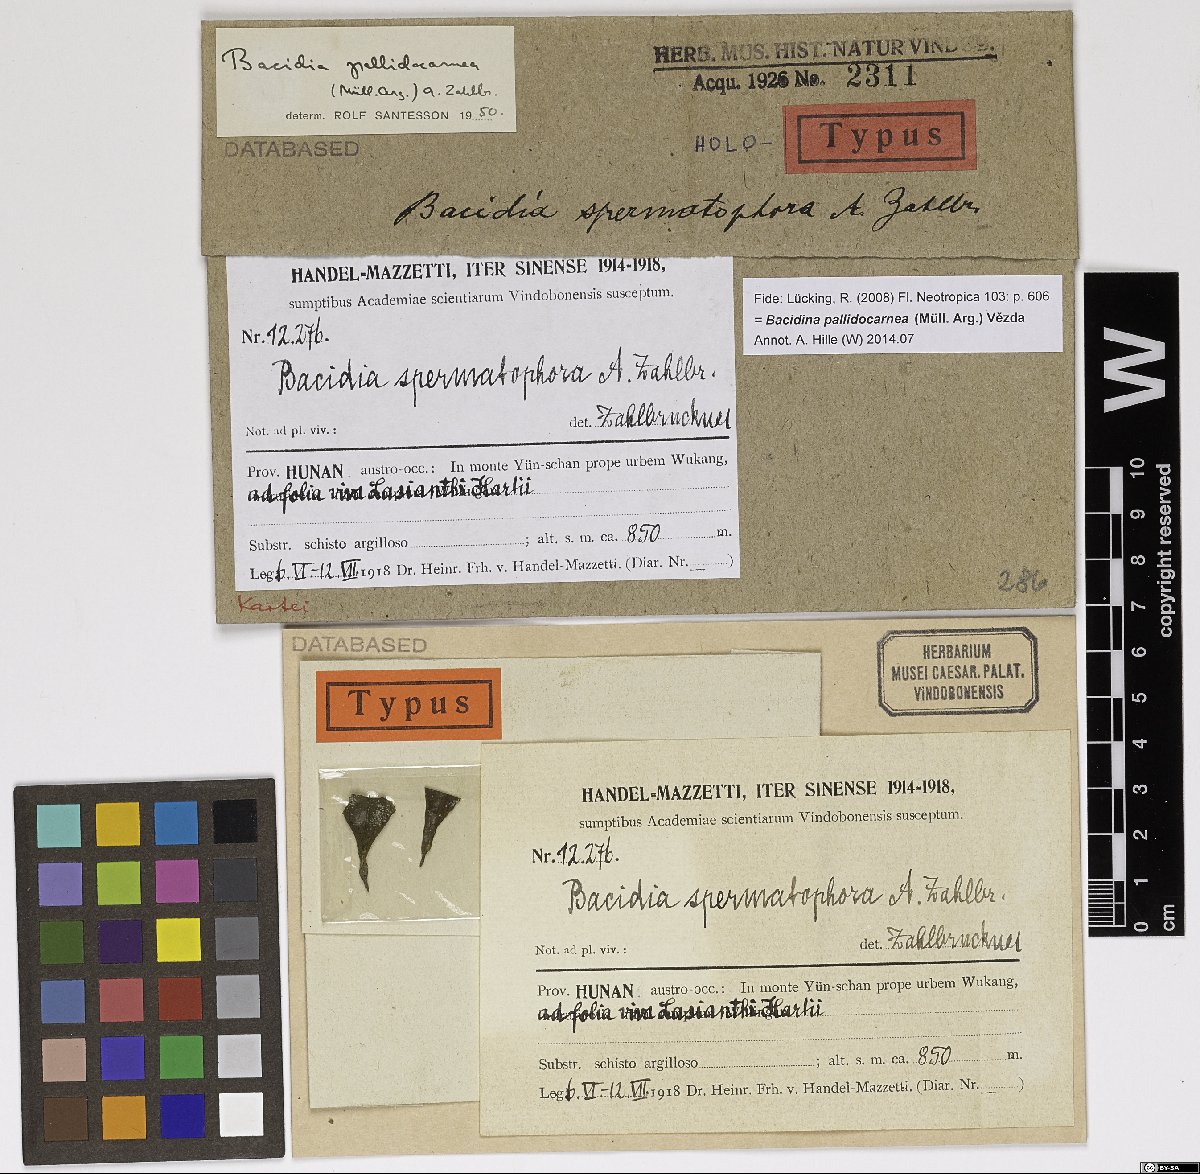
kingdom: Fungi
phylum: Ascomycota
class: Lecanoromycetes
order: Lecanorales
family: Ramalinaceae
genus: Bacidia
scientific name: Bacidia
